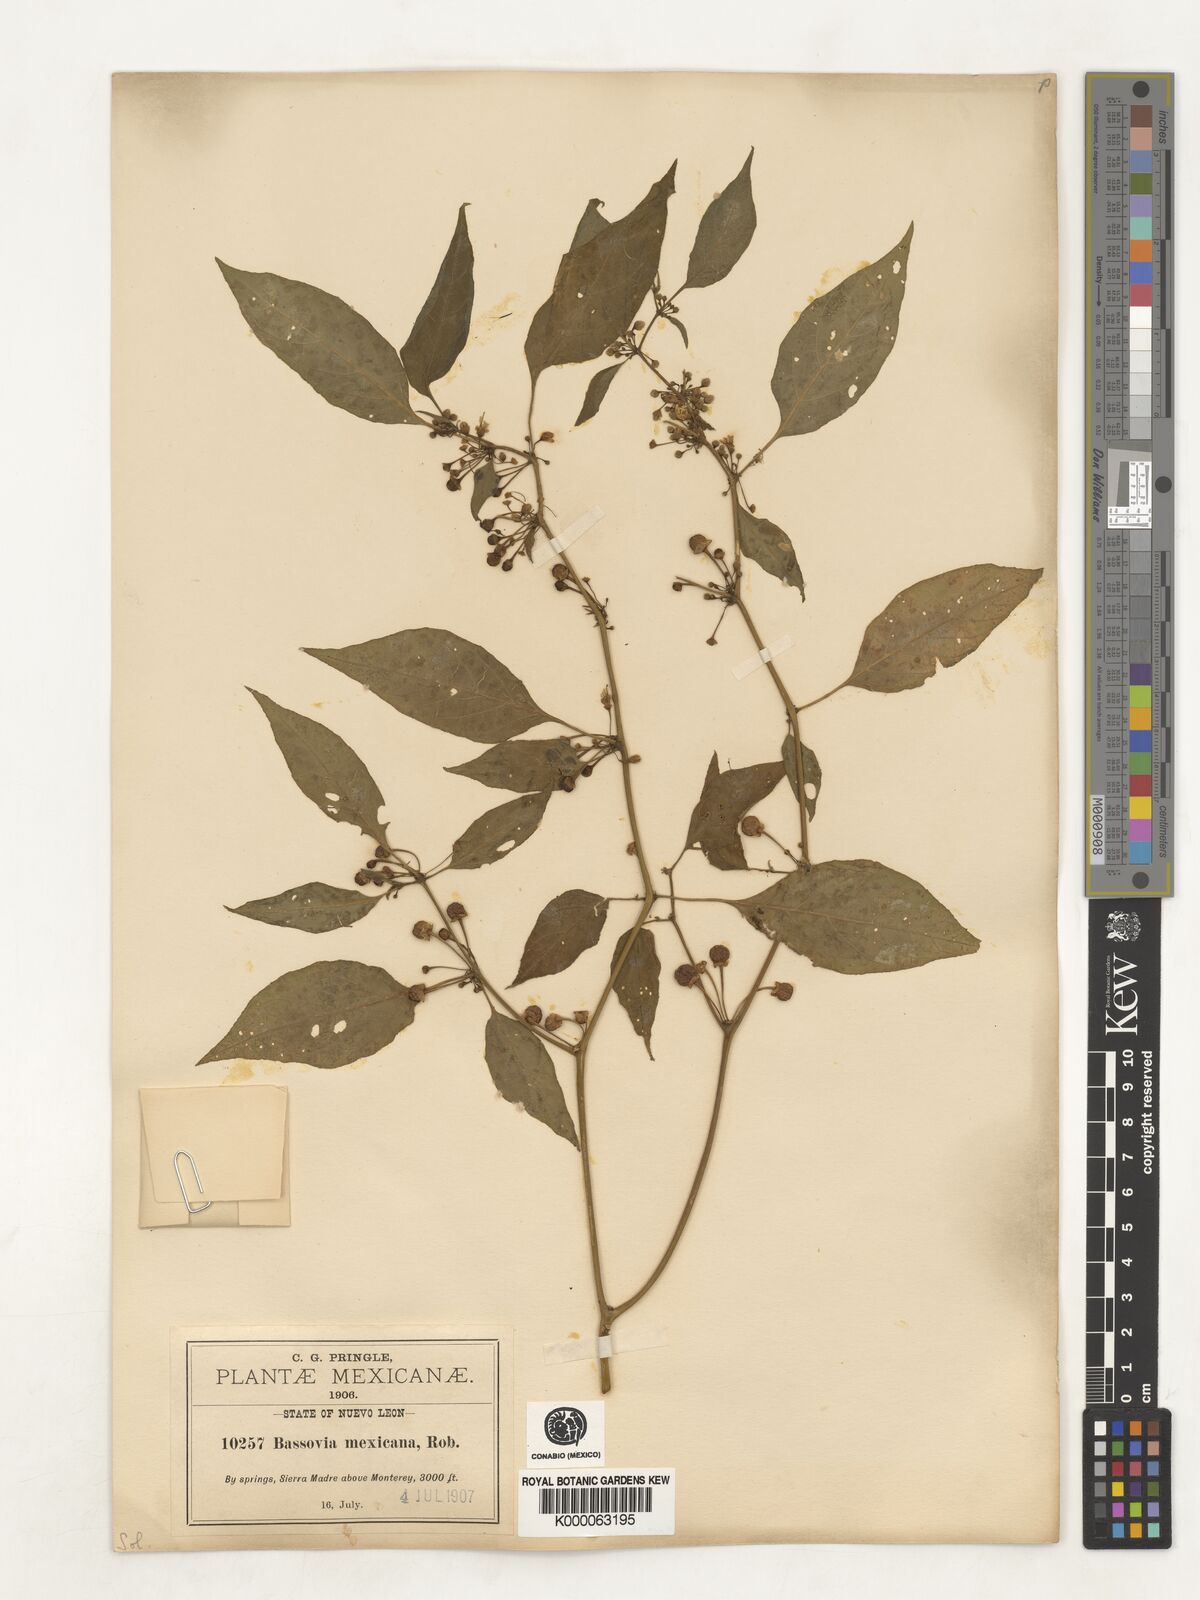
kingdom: Plantae
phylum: Tracheophyta
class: Magnoliopsida
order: Solanales
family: Solanaceae
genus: Witheringia
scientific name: Witheringia mexicana
